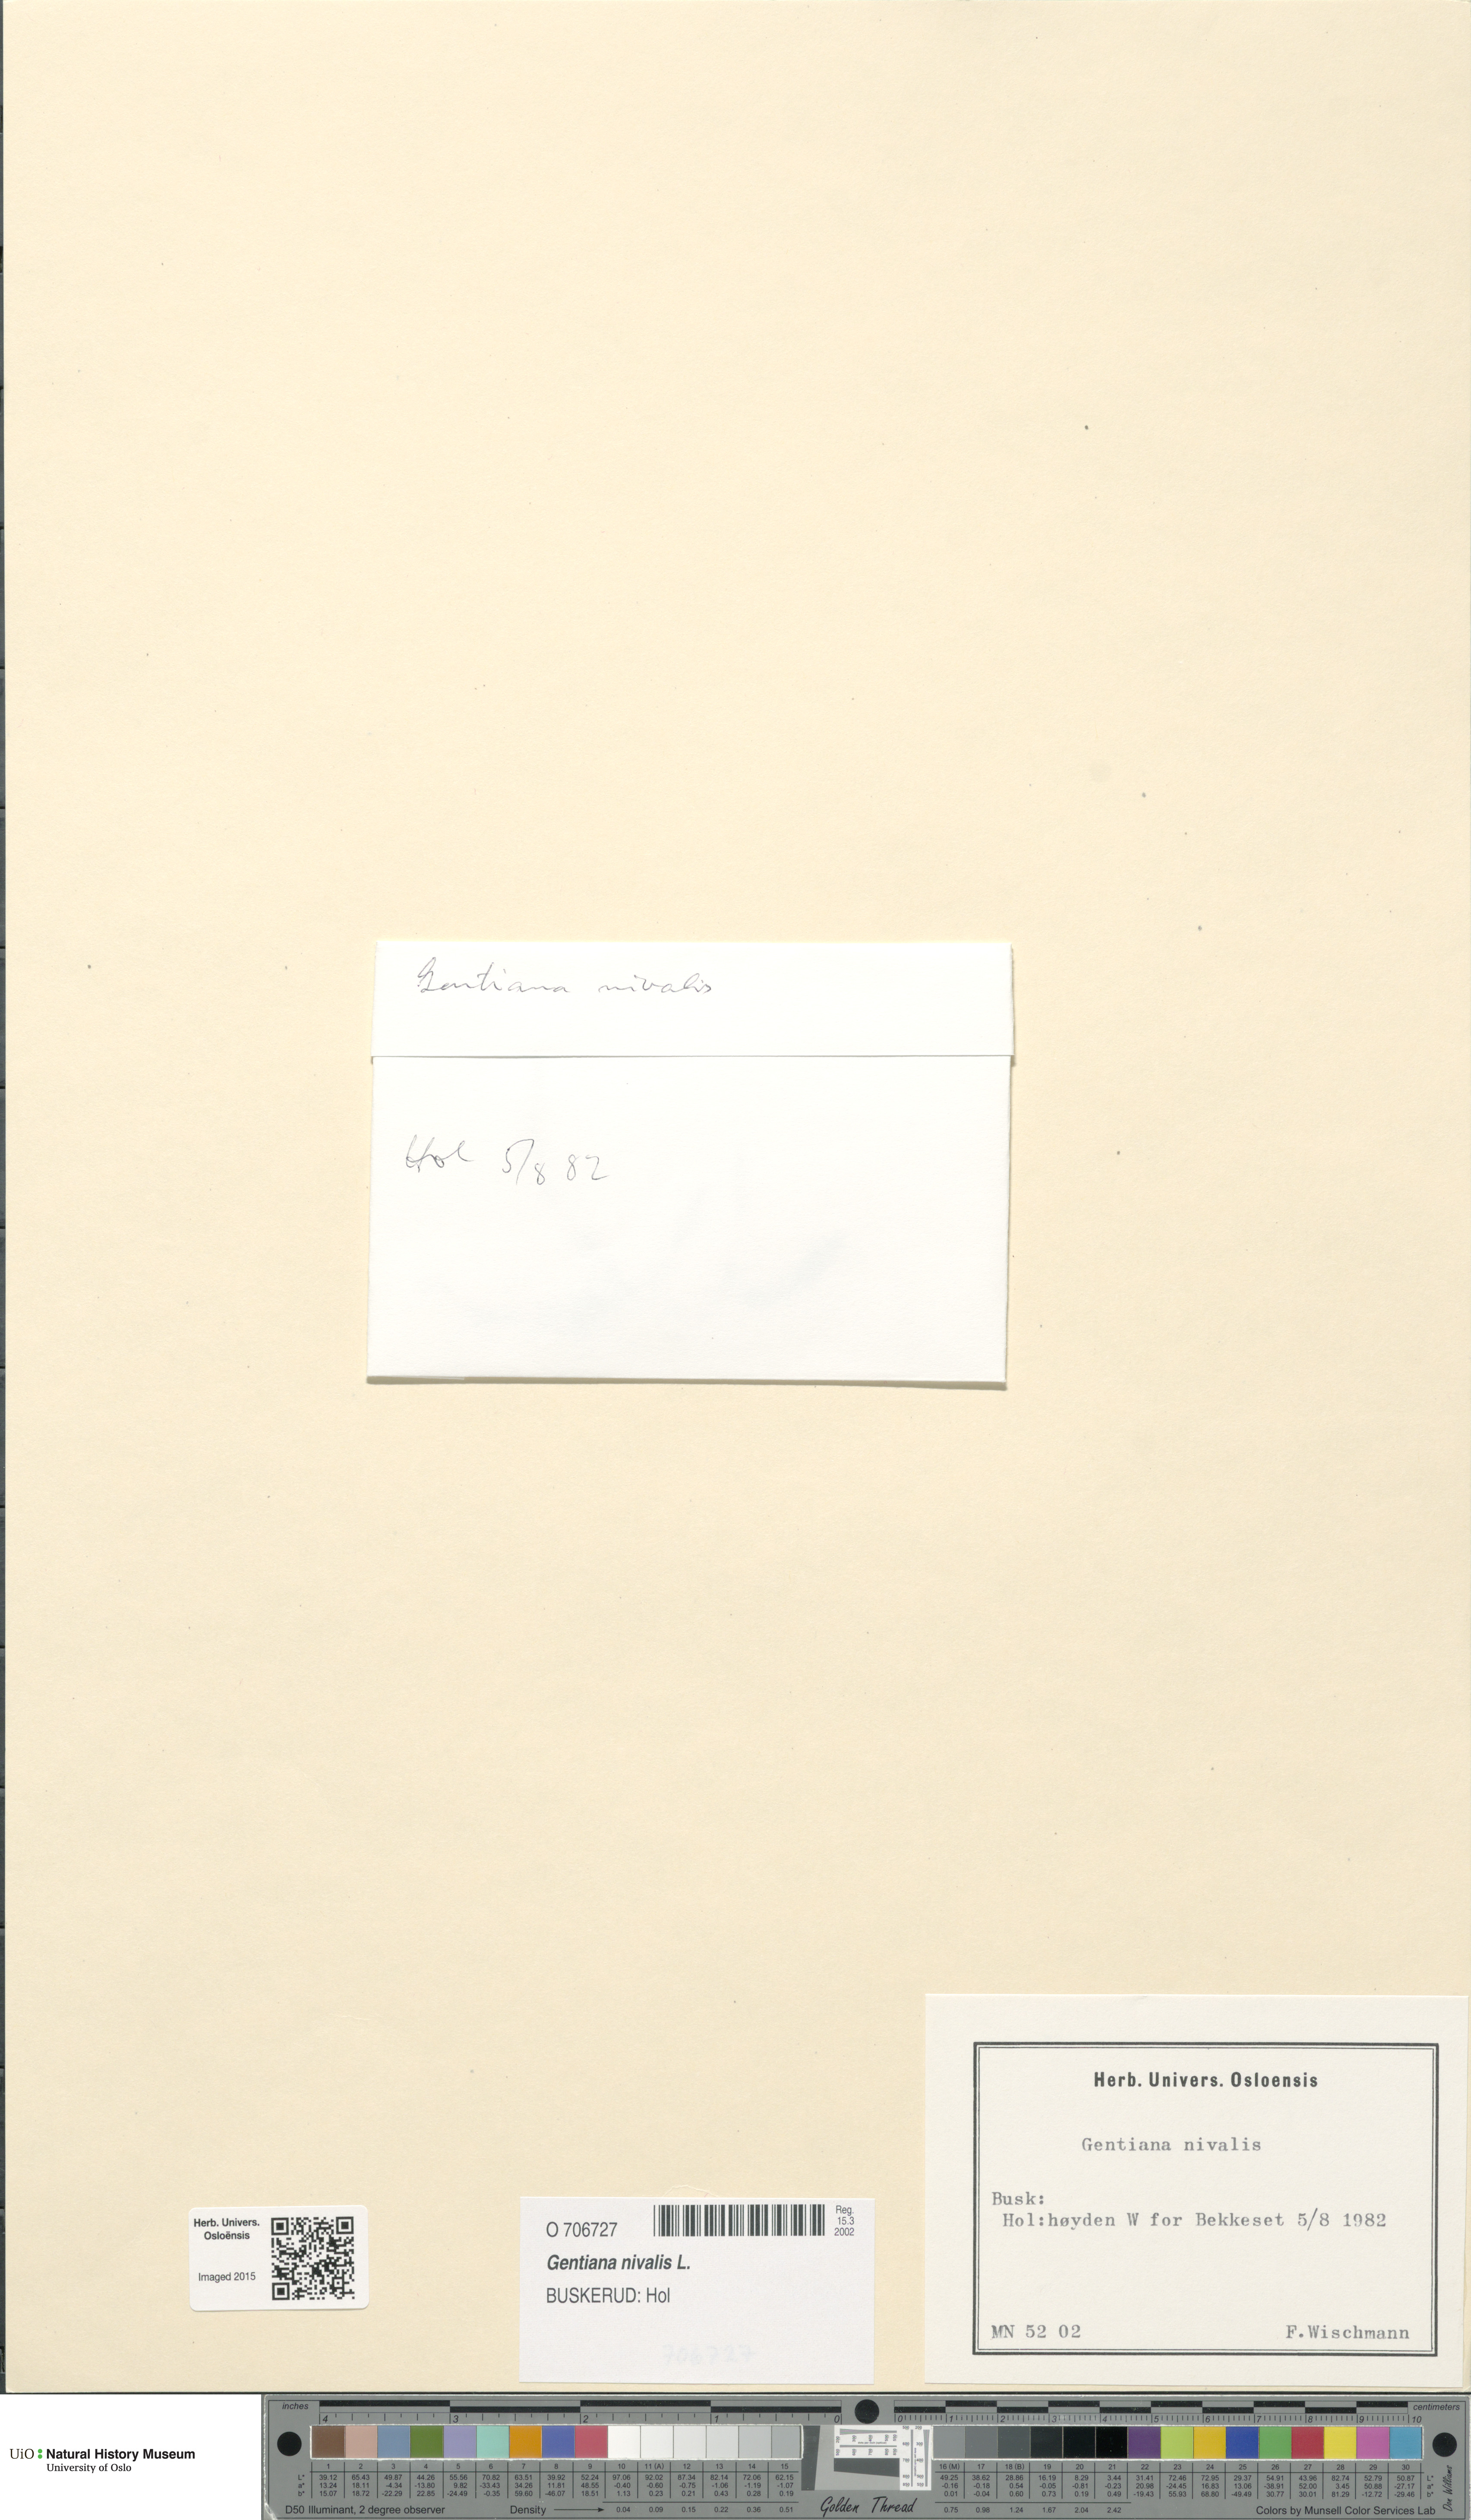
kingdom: Plantae
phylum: Tracheophyta
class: Magnoliopsida
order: Gentianales
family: Gentianaceae
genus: Gentiana
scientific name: Gentiana nivalis
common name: Alpine gentian
